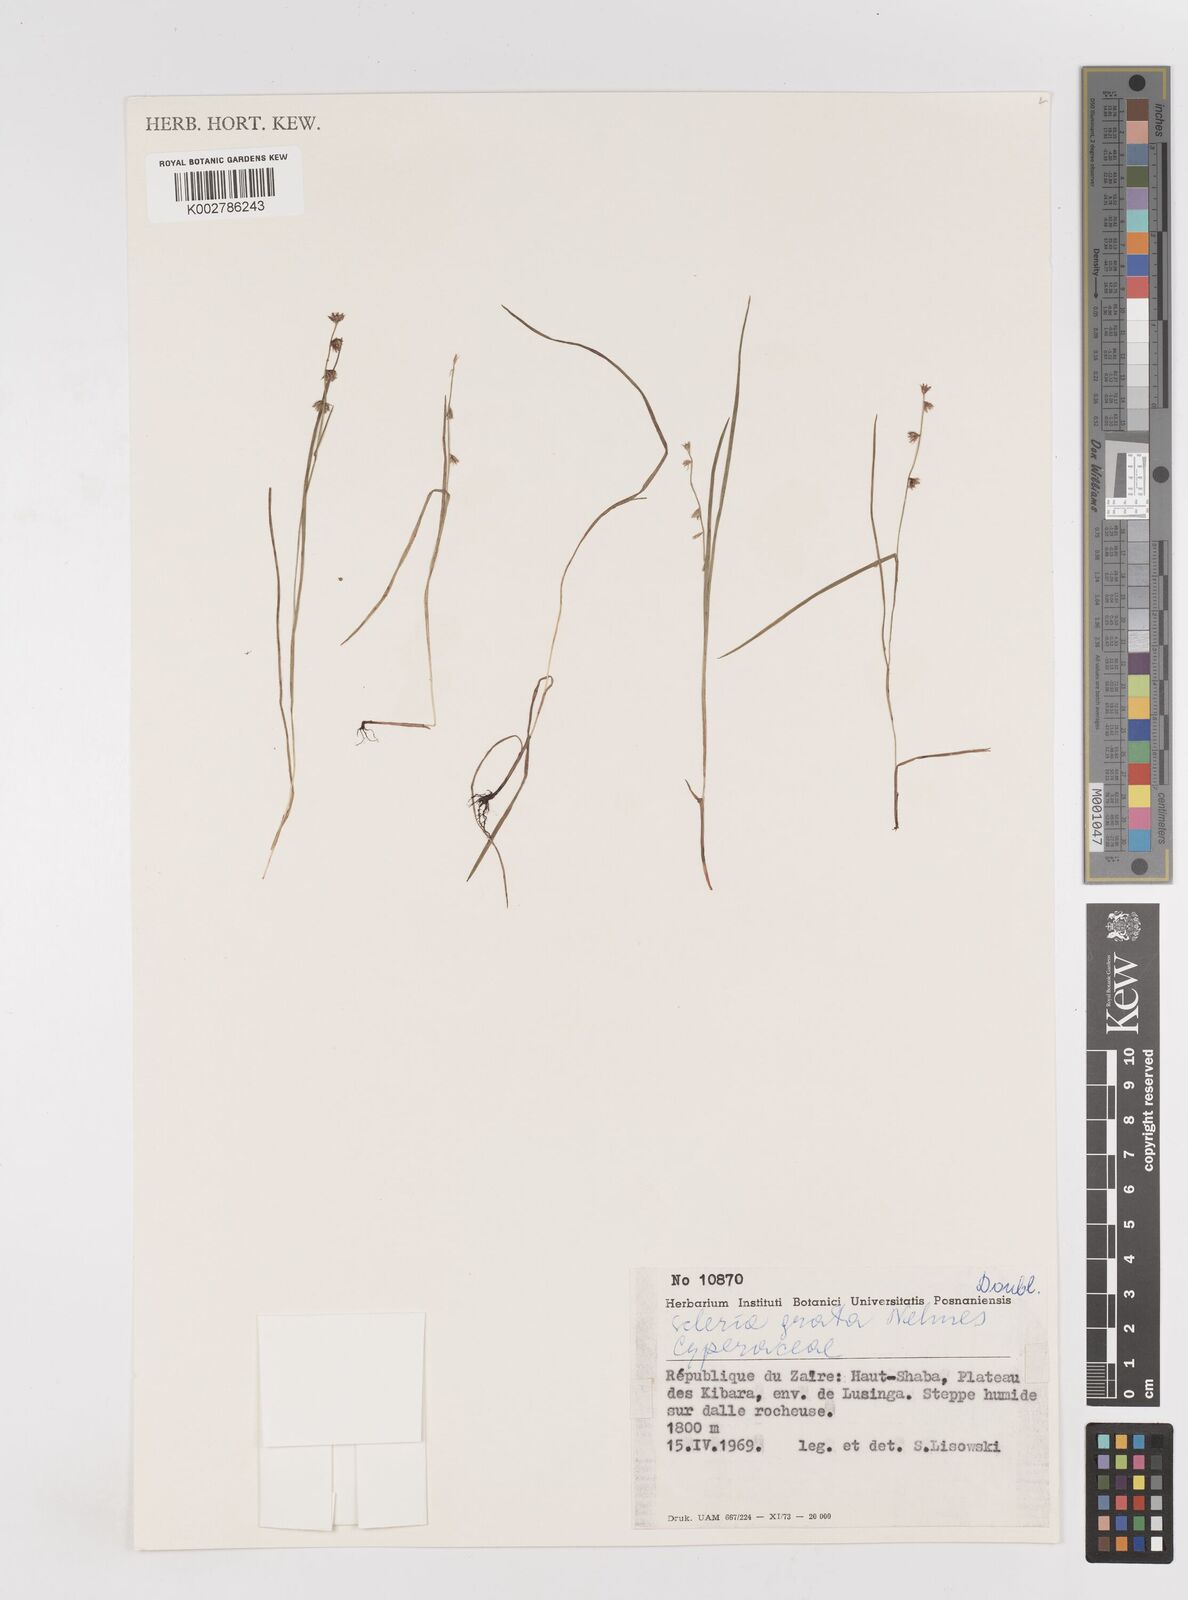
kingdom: Plantae
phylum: Tracheophyta
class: Liliopsida
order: Poales
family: Cyperaceae
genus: Scleria
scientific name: Scleria melanotricha
